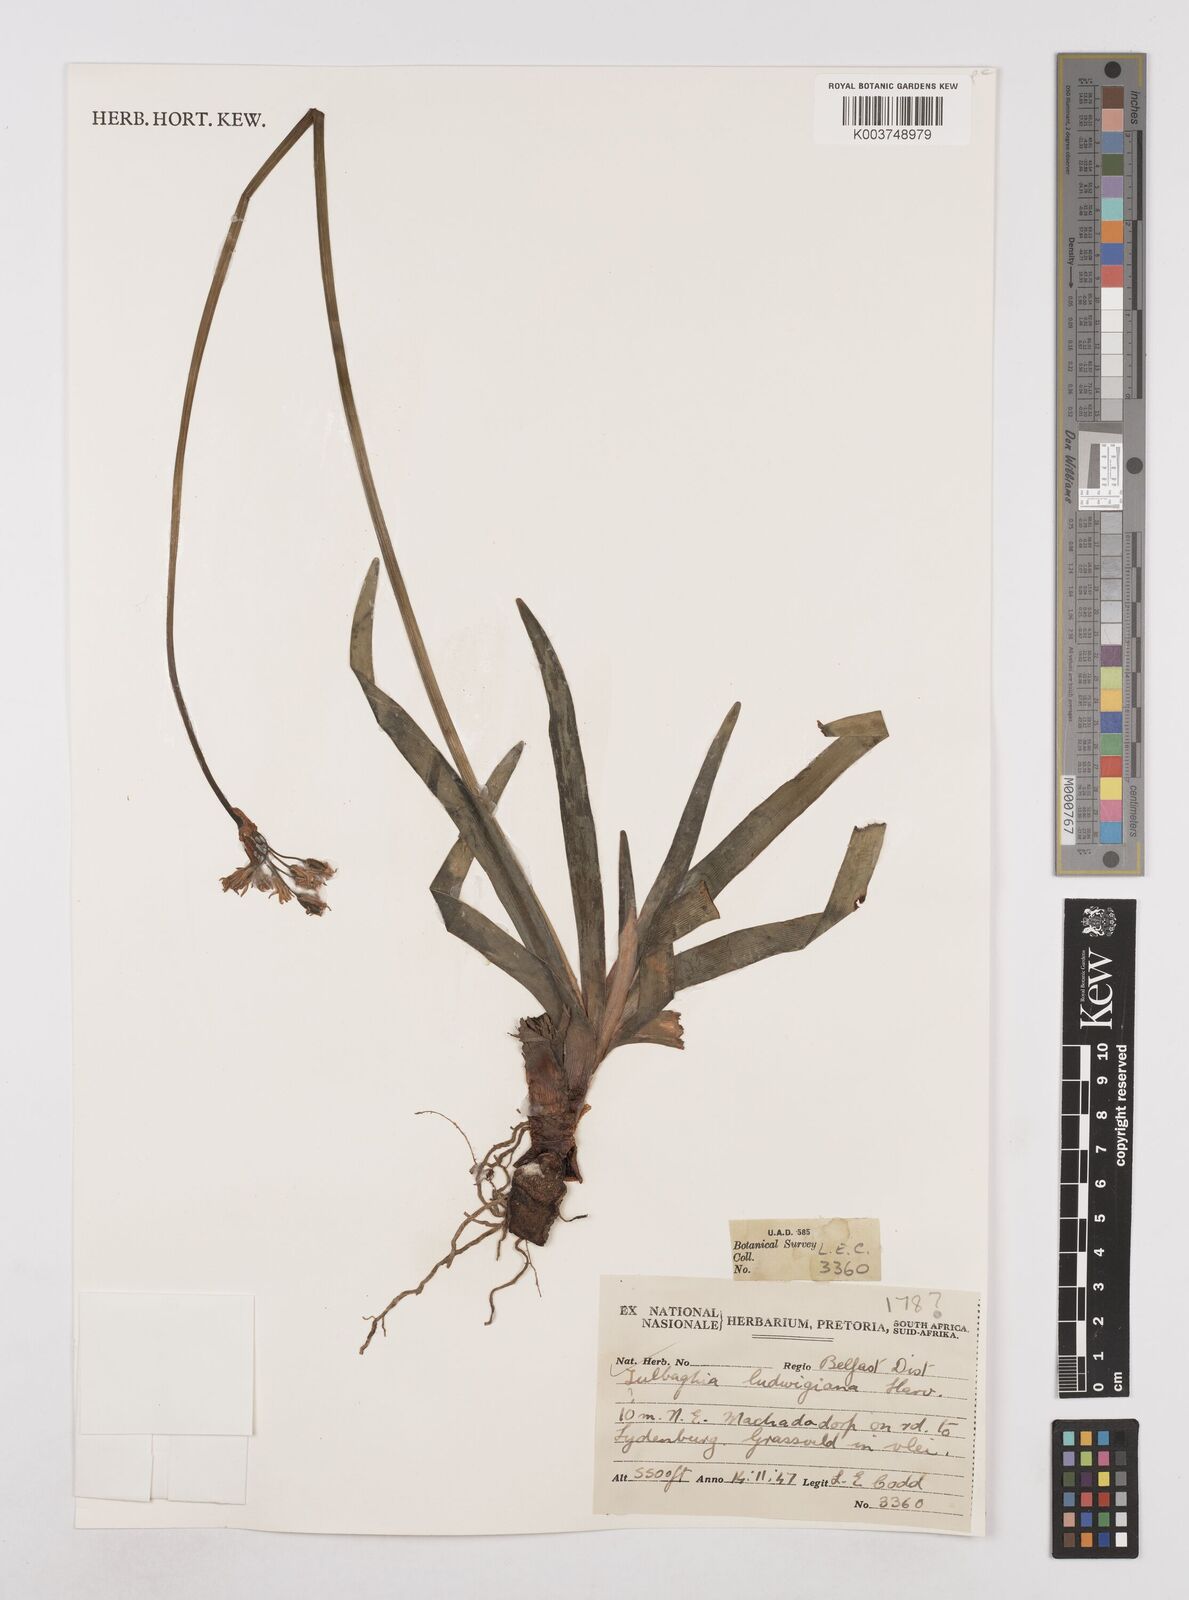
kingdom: Plantae
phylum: Tracheophyta
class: Liliopsida
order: Asparagales
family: Amaryllidaceae
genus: Tulbaghia
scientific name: Tulbaghia ludwigiana
